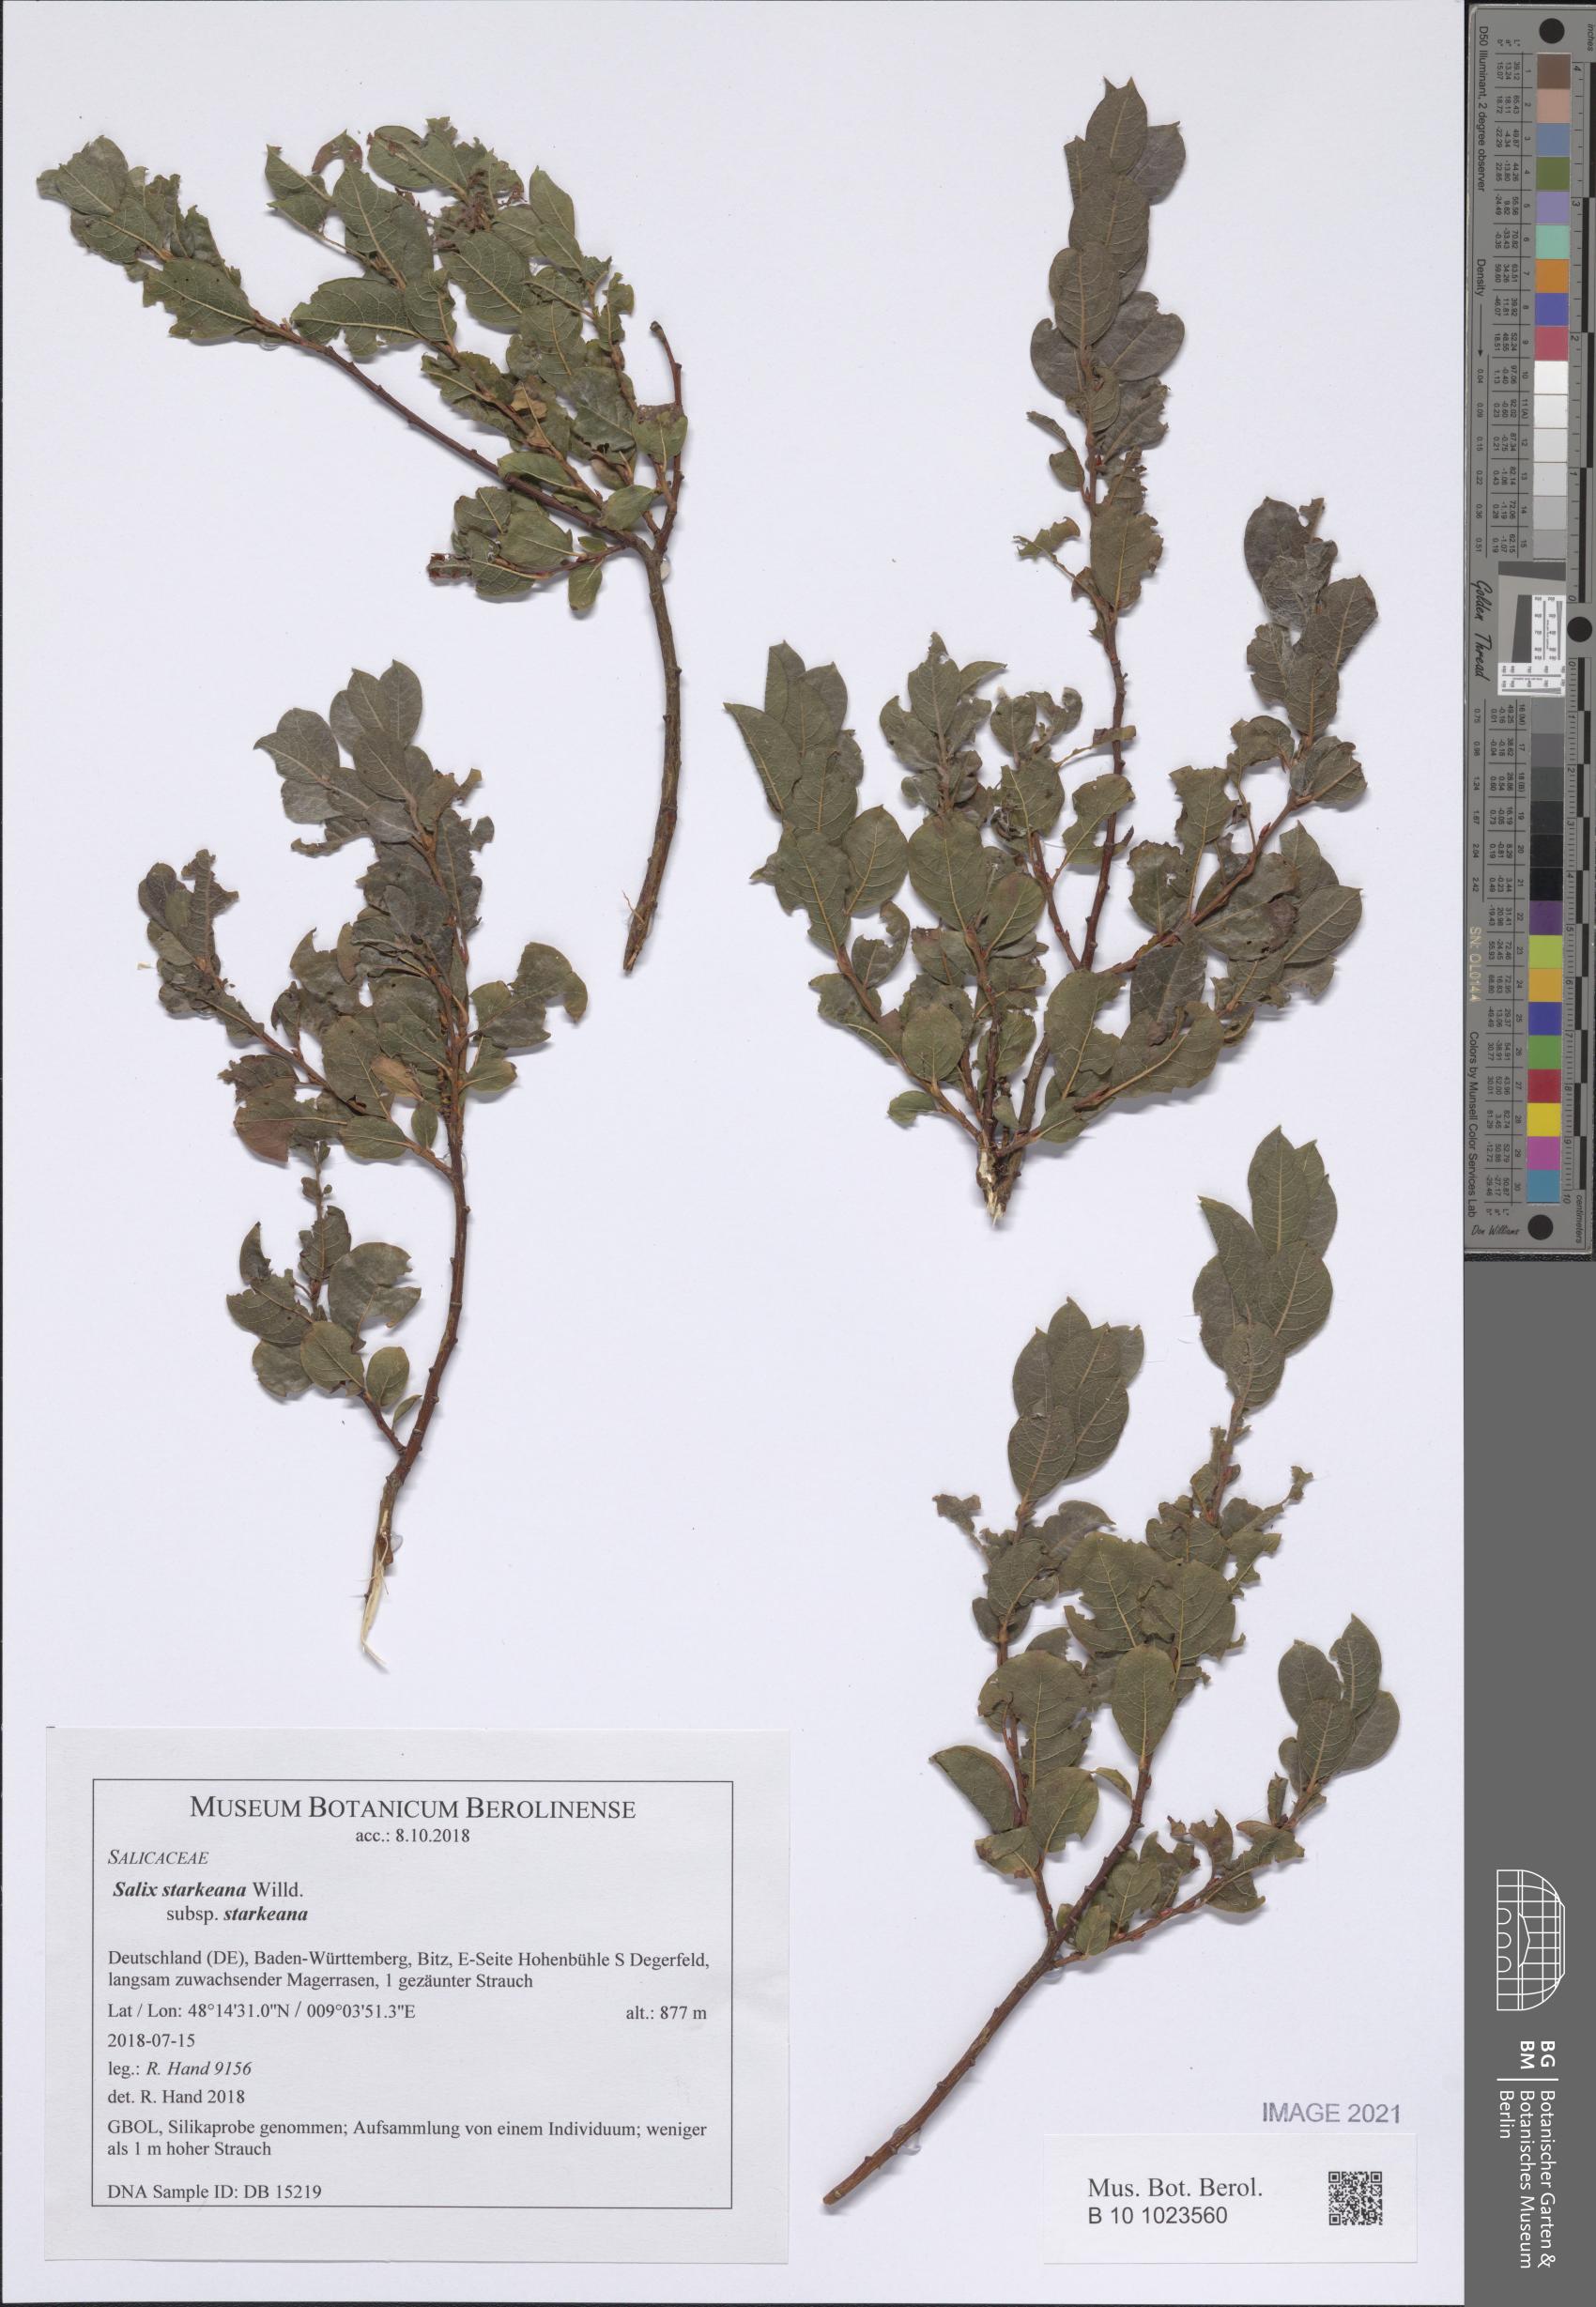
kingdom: Plantae
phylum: Tracheophyta
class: Magnoliopsida
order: Malpighiales
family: Salicaceae
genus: Salix
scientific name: Salix starkeana
